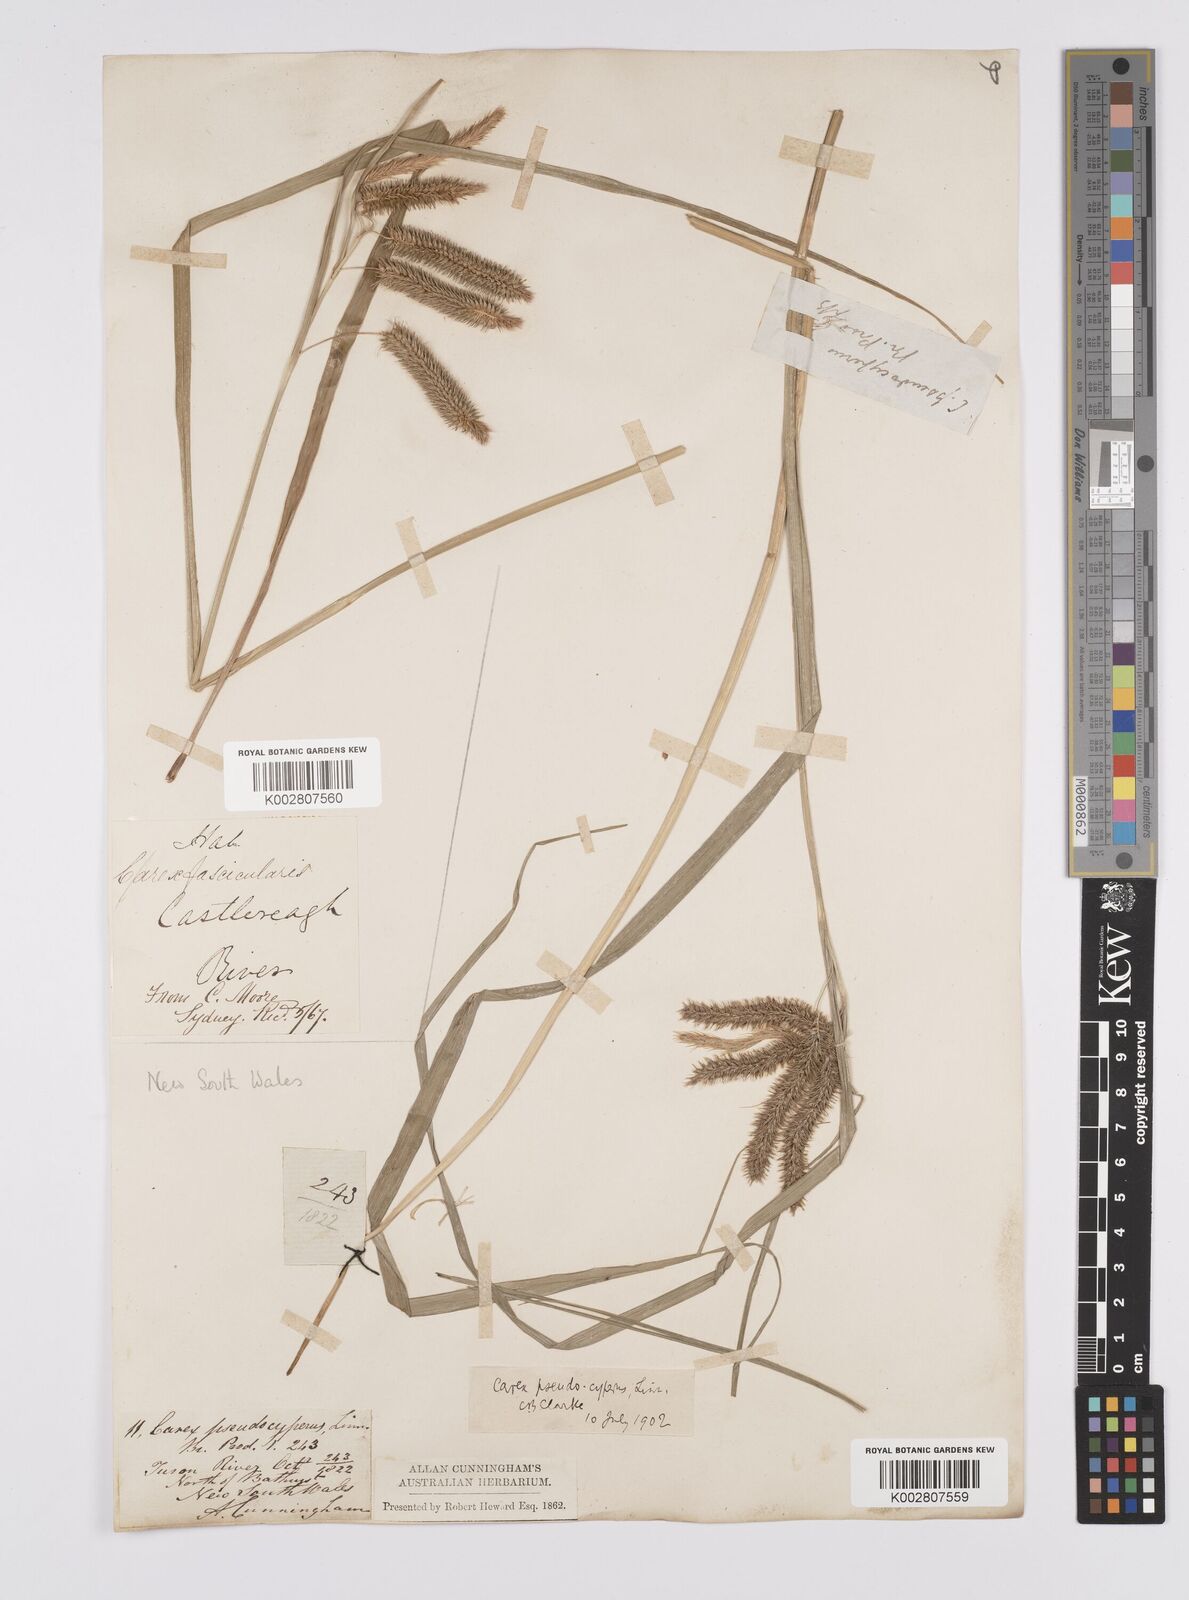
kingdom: Plantae
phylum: Tracheophyta
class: Liliopsida
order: Poales
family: Cyperaceae
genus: Carex
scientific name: Carex fascicularis
